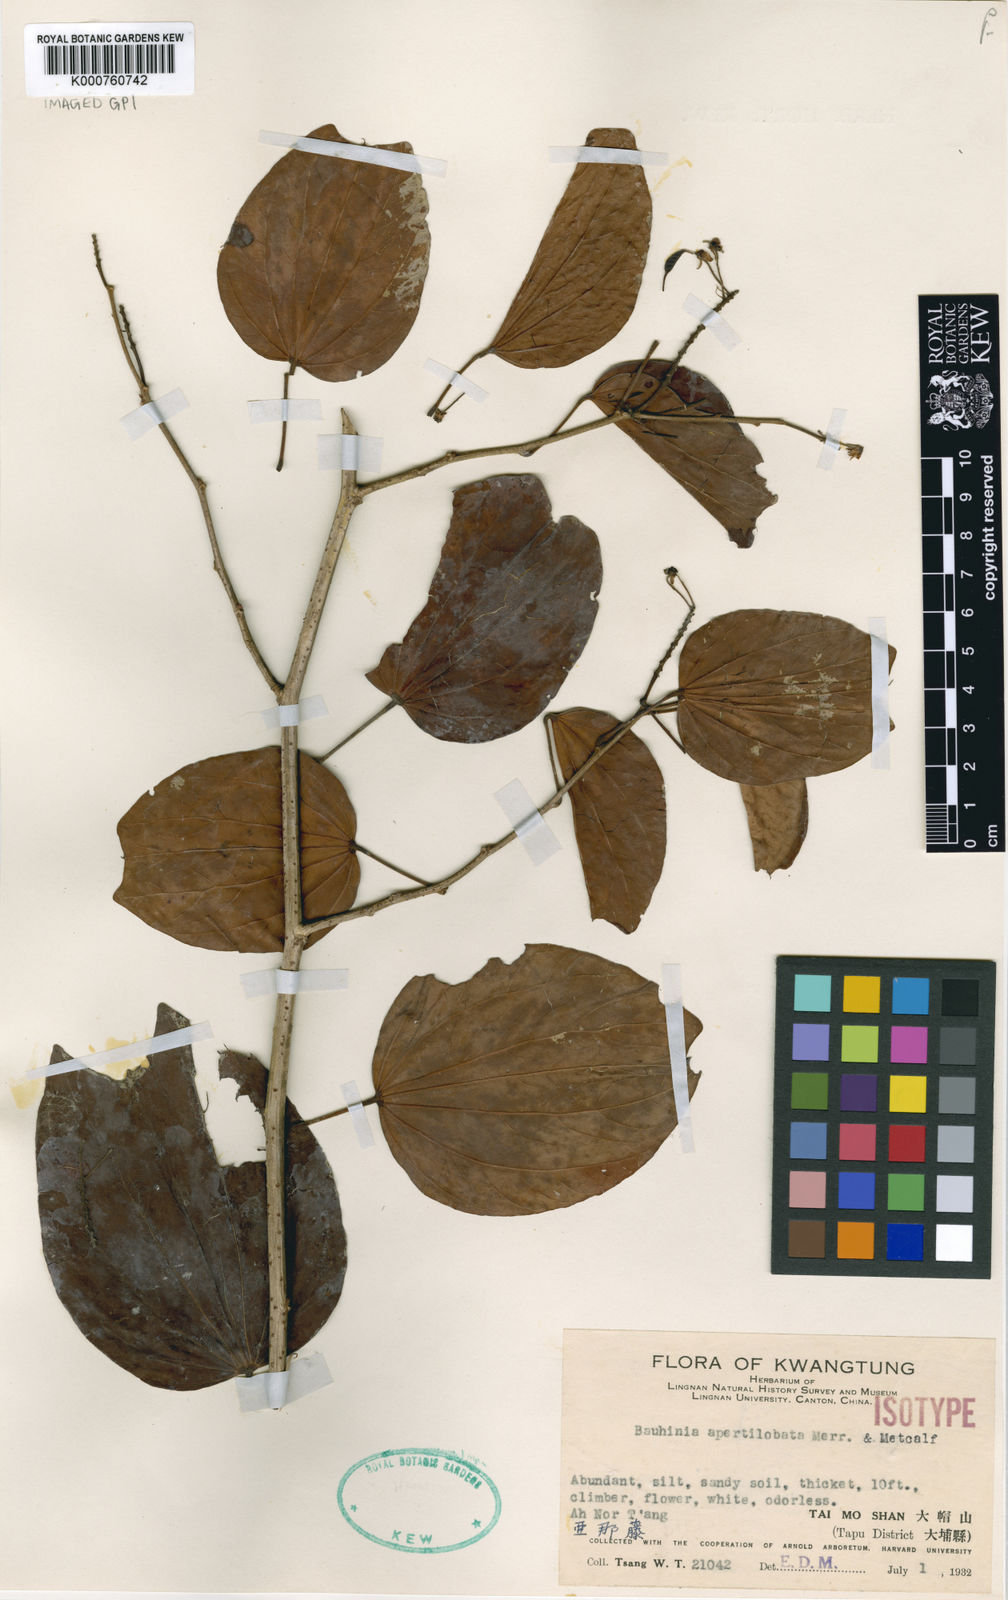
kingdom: Plantae
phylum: Tracheophyta
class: Magnoliopsida
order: Fabales
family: Fabaceae
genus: Phanera
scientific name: Phanera apertilobata
